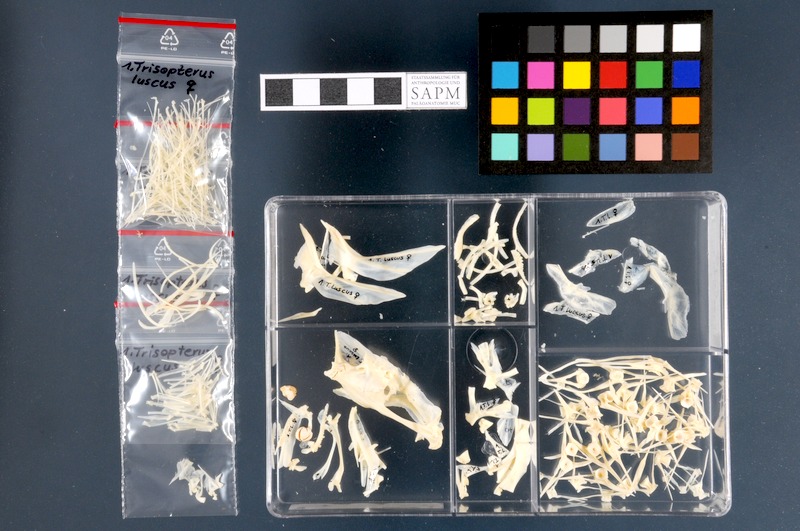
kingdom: Animalia
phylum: Chordata
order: Gadiformes
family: Gadidae
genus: Trisopterus
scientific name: Trisopterus luscus
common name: Bib
